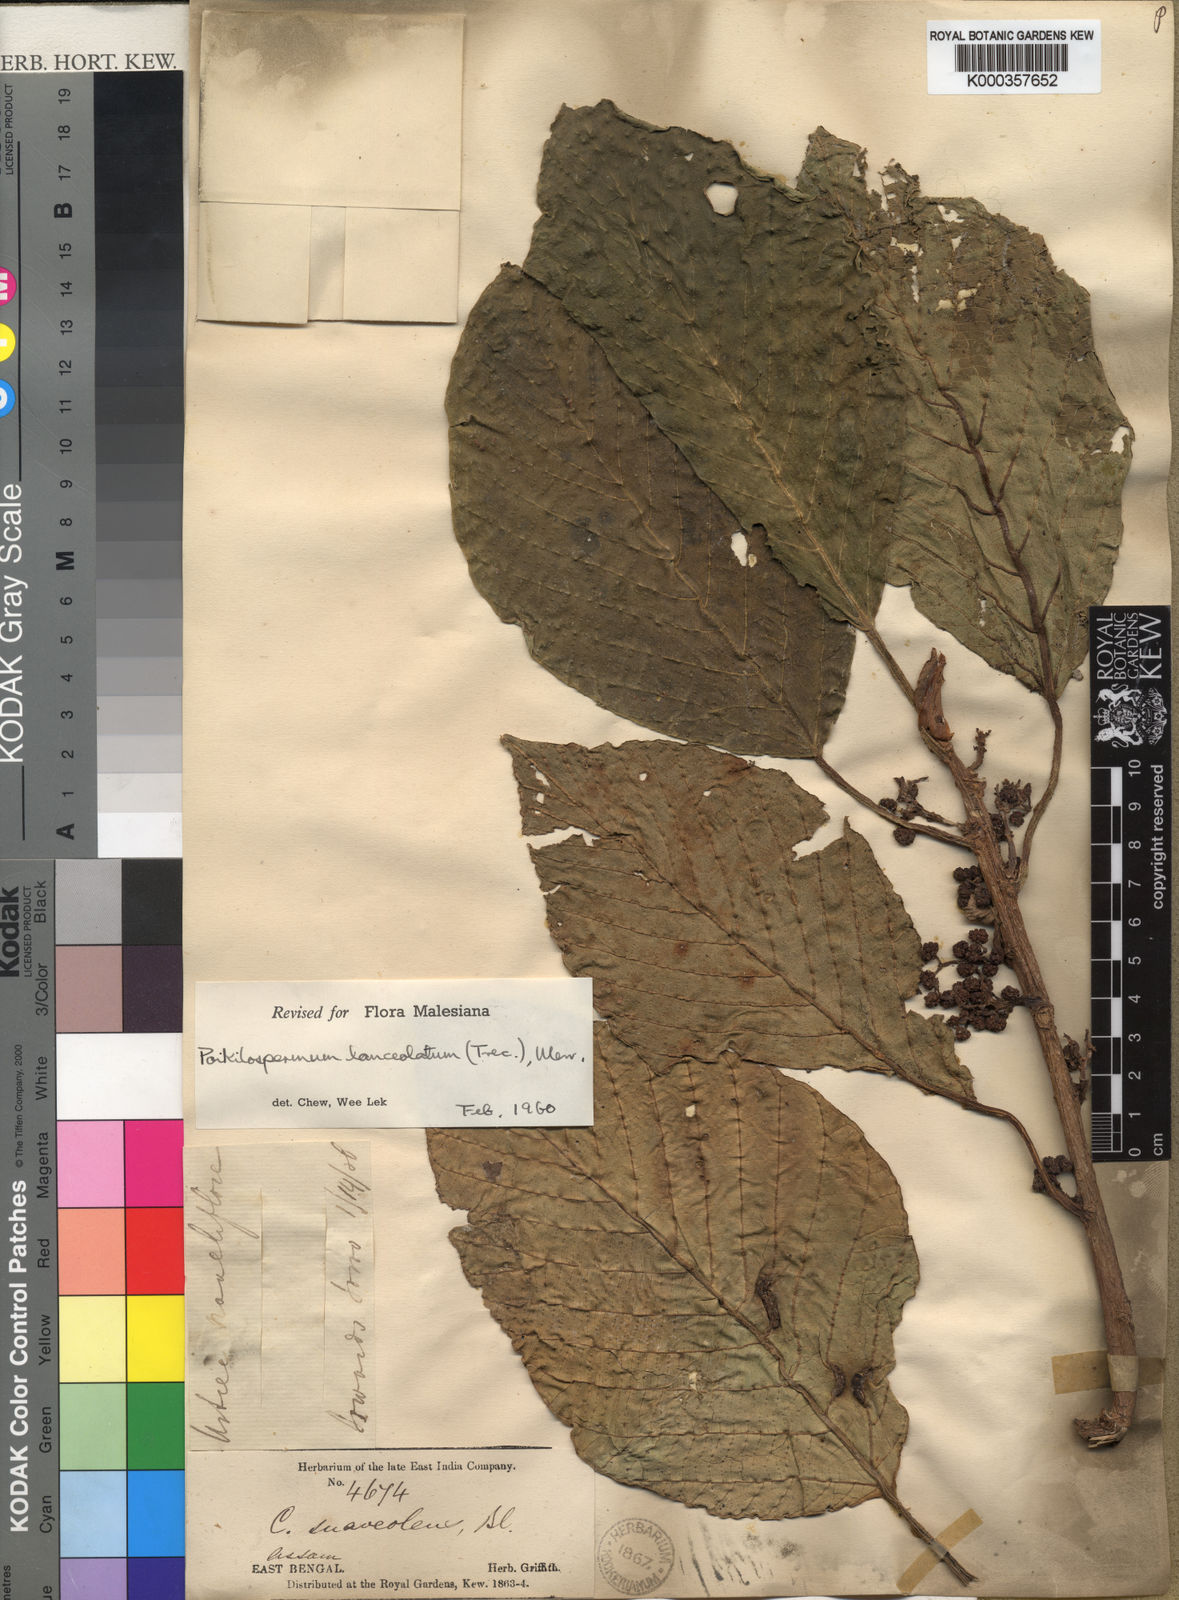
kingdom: Plantae
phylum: Tracheophyta
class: Magnoliopsida
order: Rosales
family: Urticaceae
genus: Poikilospermum
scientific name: Poikilospermum
